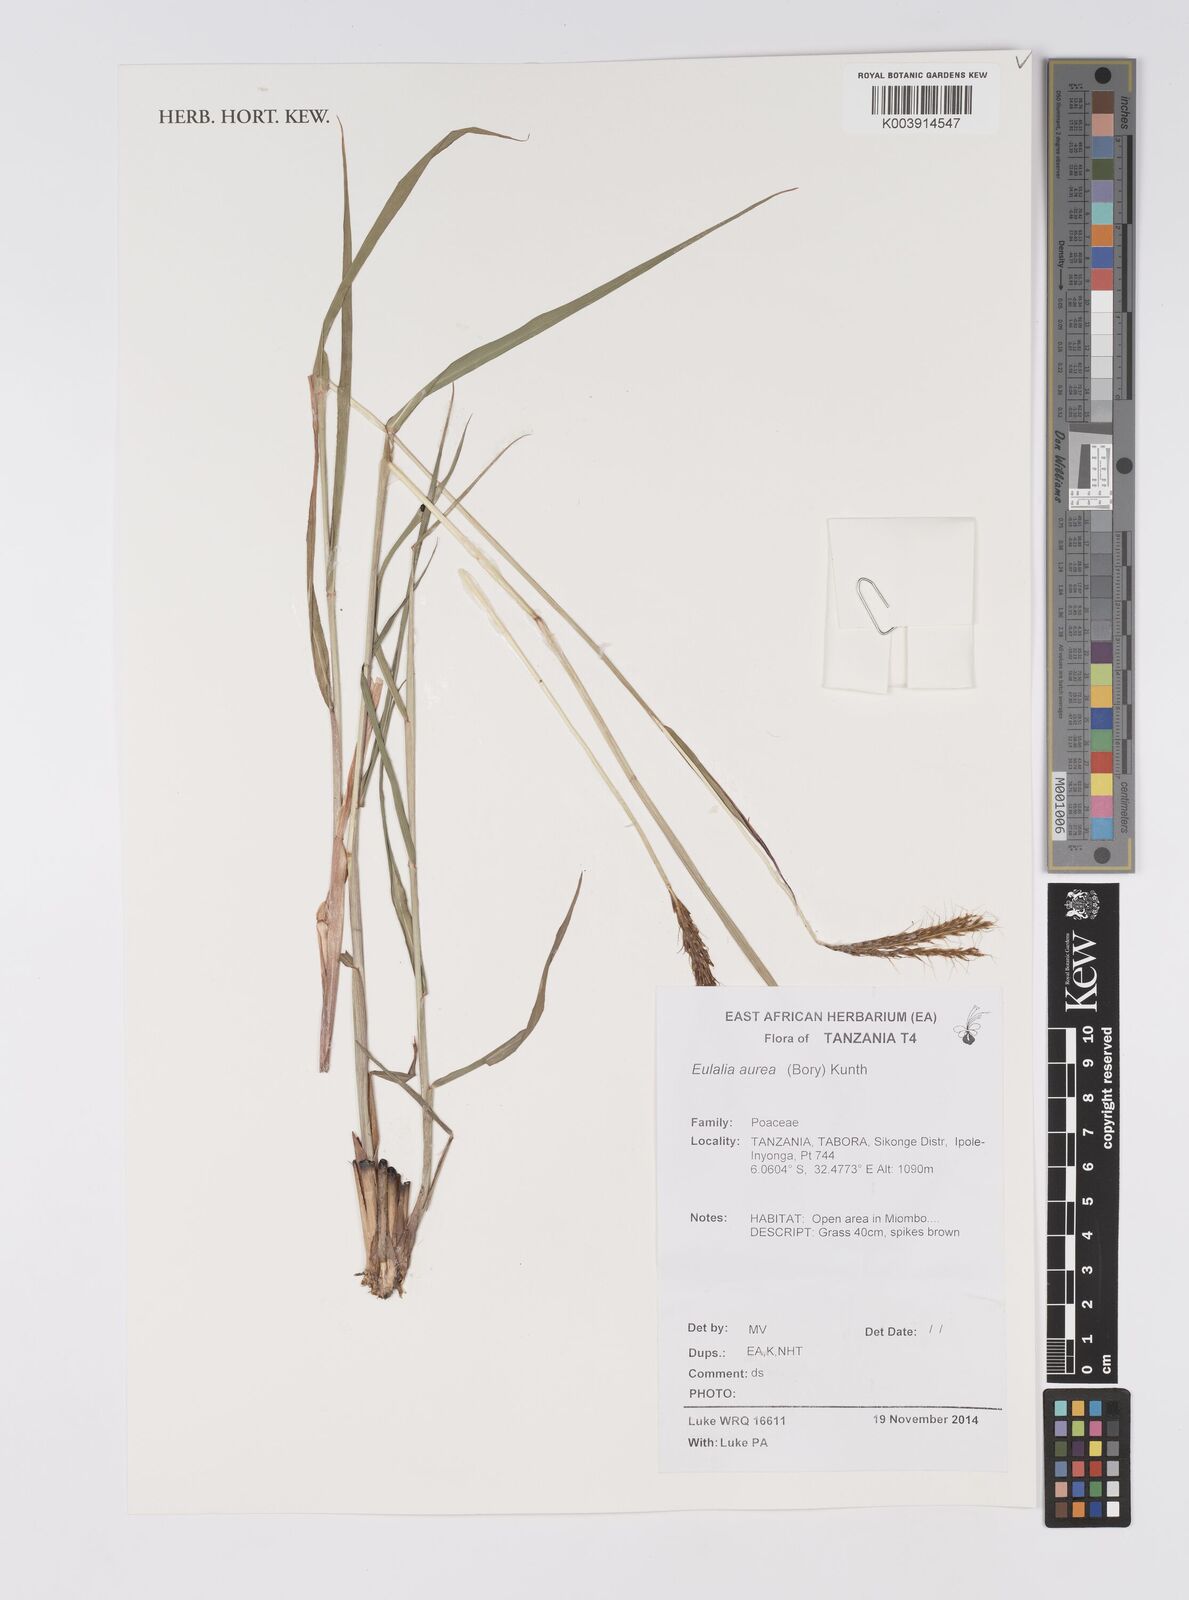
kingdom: Plantae
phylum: Tracheophyta
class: Liliopsida
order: Poales
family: Poaceae
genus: Eulalia
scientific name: Eulalia aurea
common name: Silky browntop
